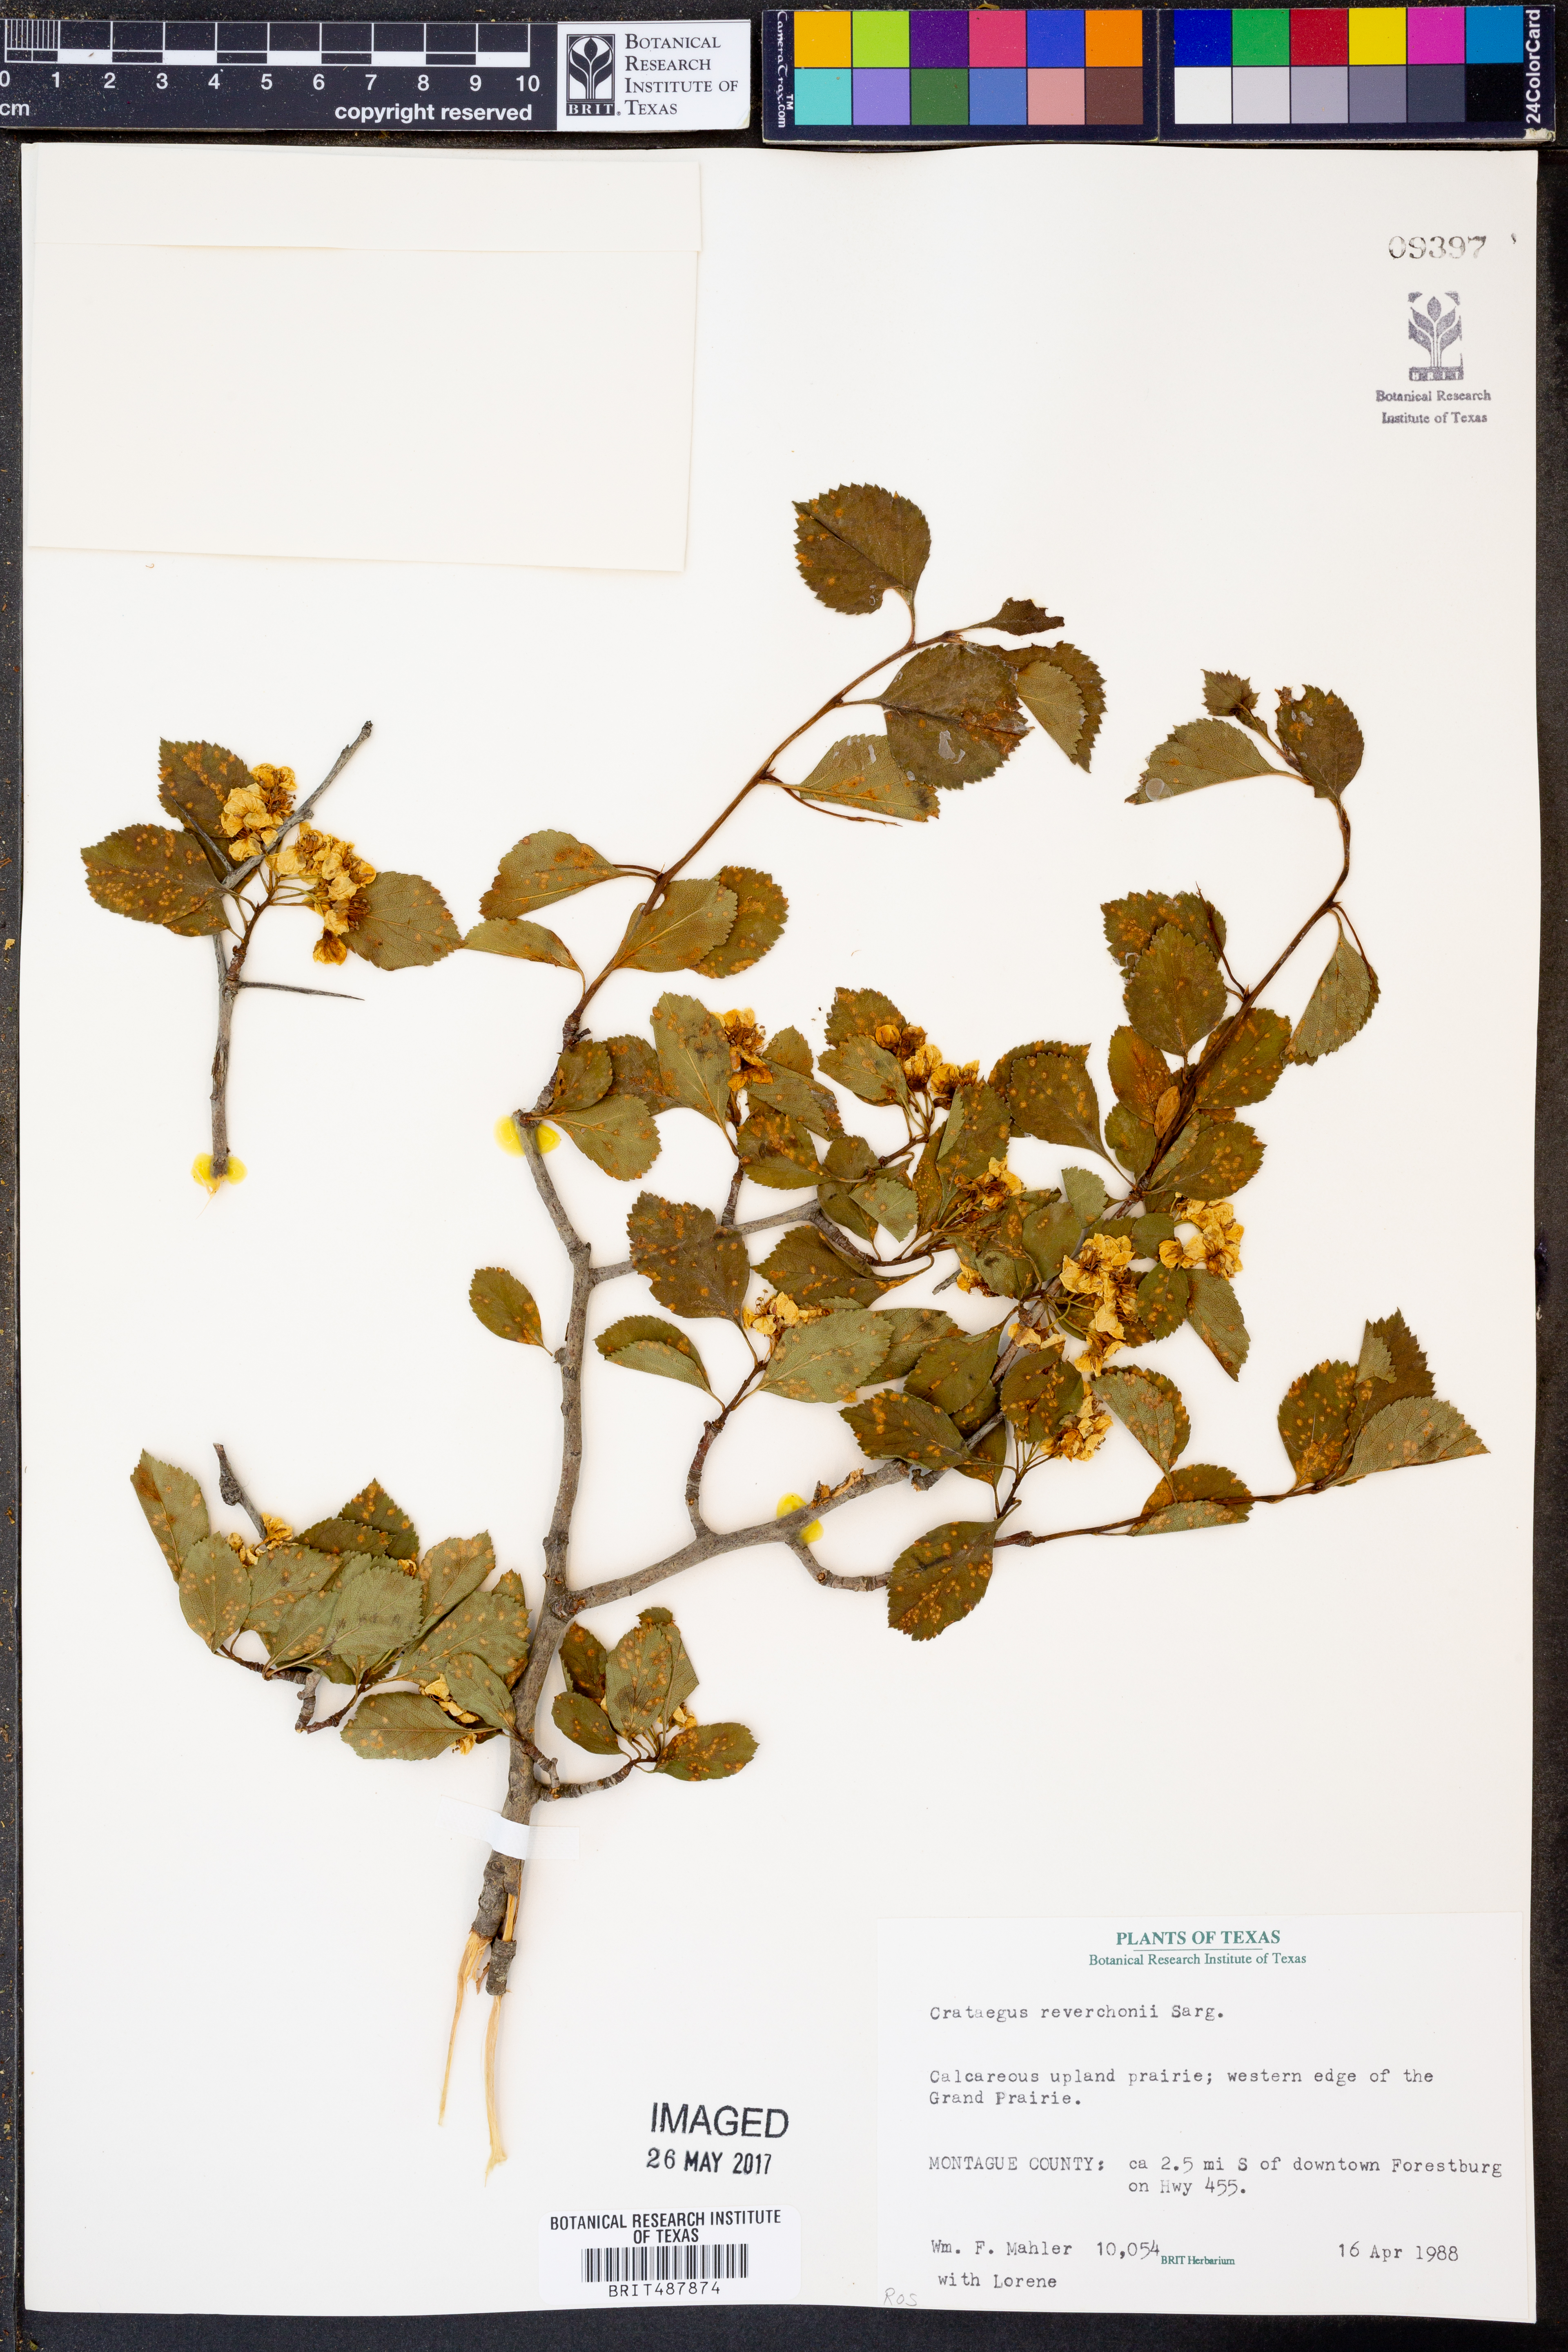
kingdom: Plantae
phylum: Tracheophyta
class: Magnoliopsida
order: Rosales
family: Rosaceae
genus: Crataegus
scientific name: Crataegus reverchonii
